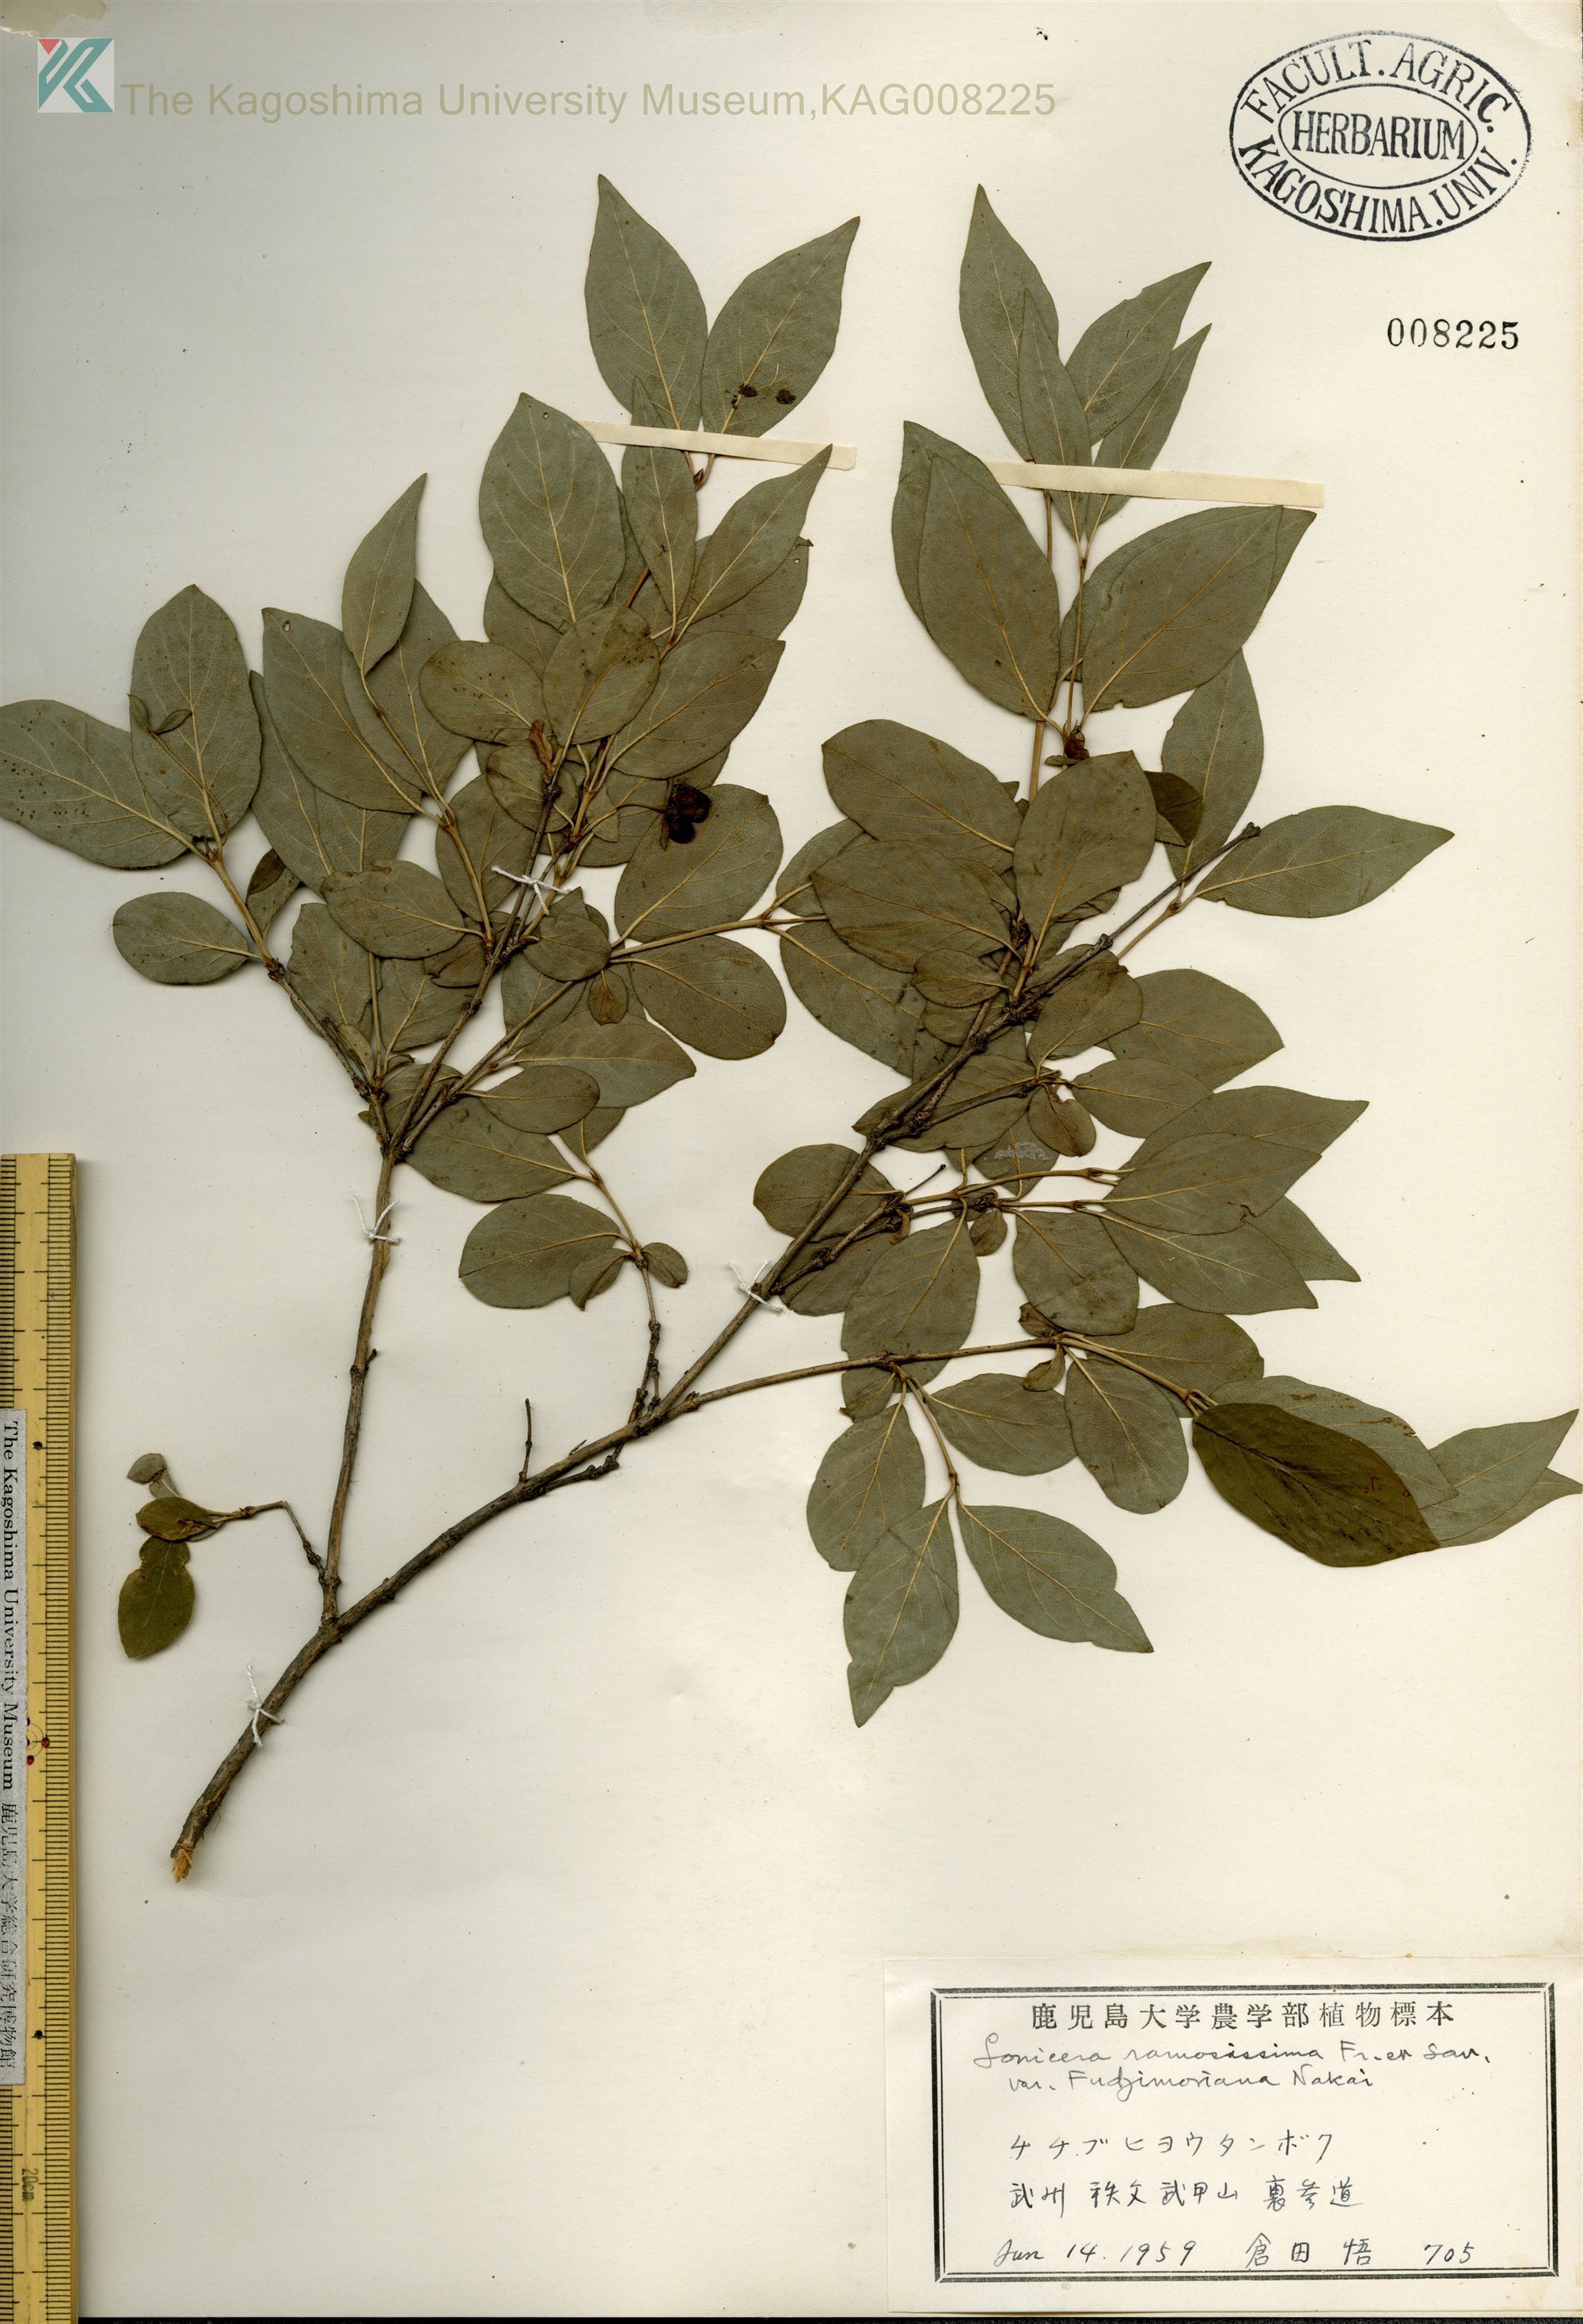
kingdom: Plantae
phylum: Tracheophyta
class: Magnoliopsida
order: Dipsacales
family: Caprifoliaceae
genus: Lonicera
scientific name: Lonicera ramosissima
